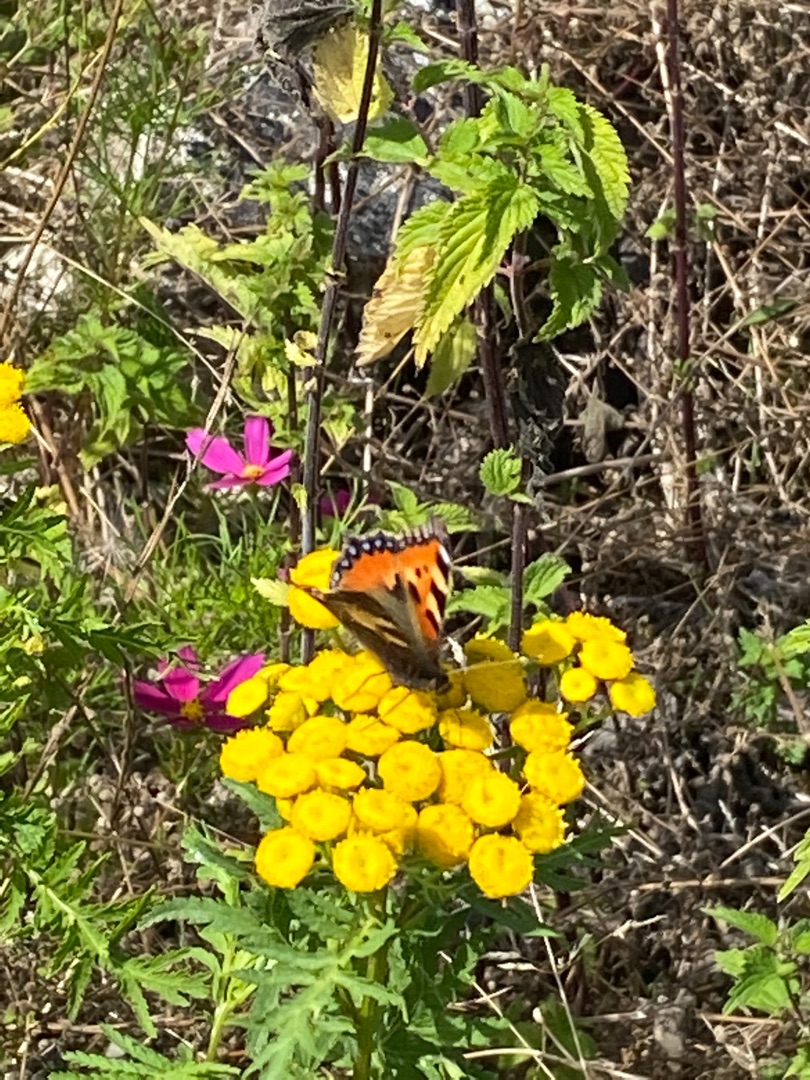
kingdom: Animalia
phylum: Arthropoda
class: Insecta
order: Lepidoptera
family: Nymphalidae
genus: Aglais
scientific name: Aglais urticae
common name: Nældens takvinge
